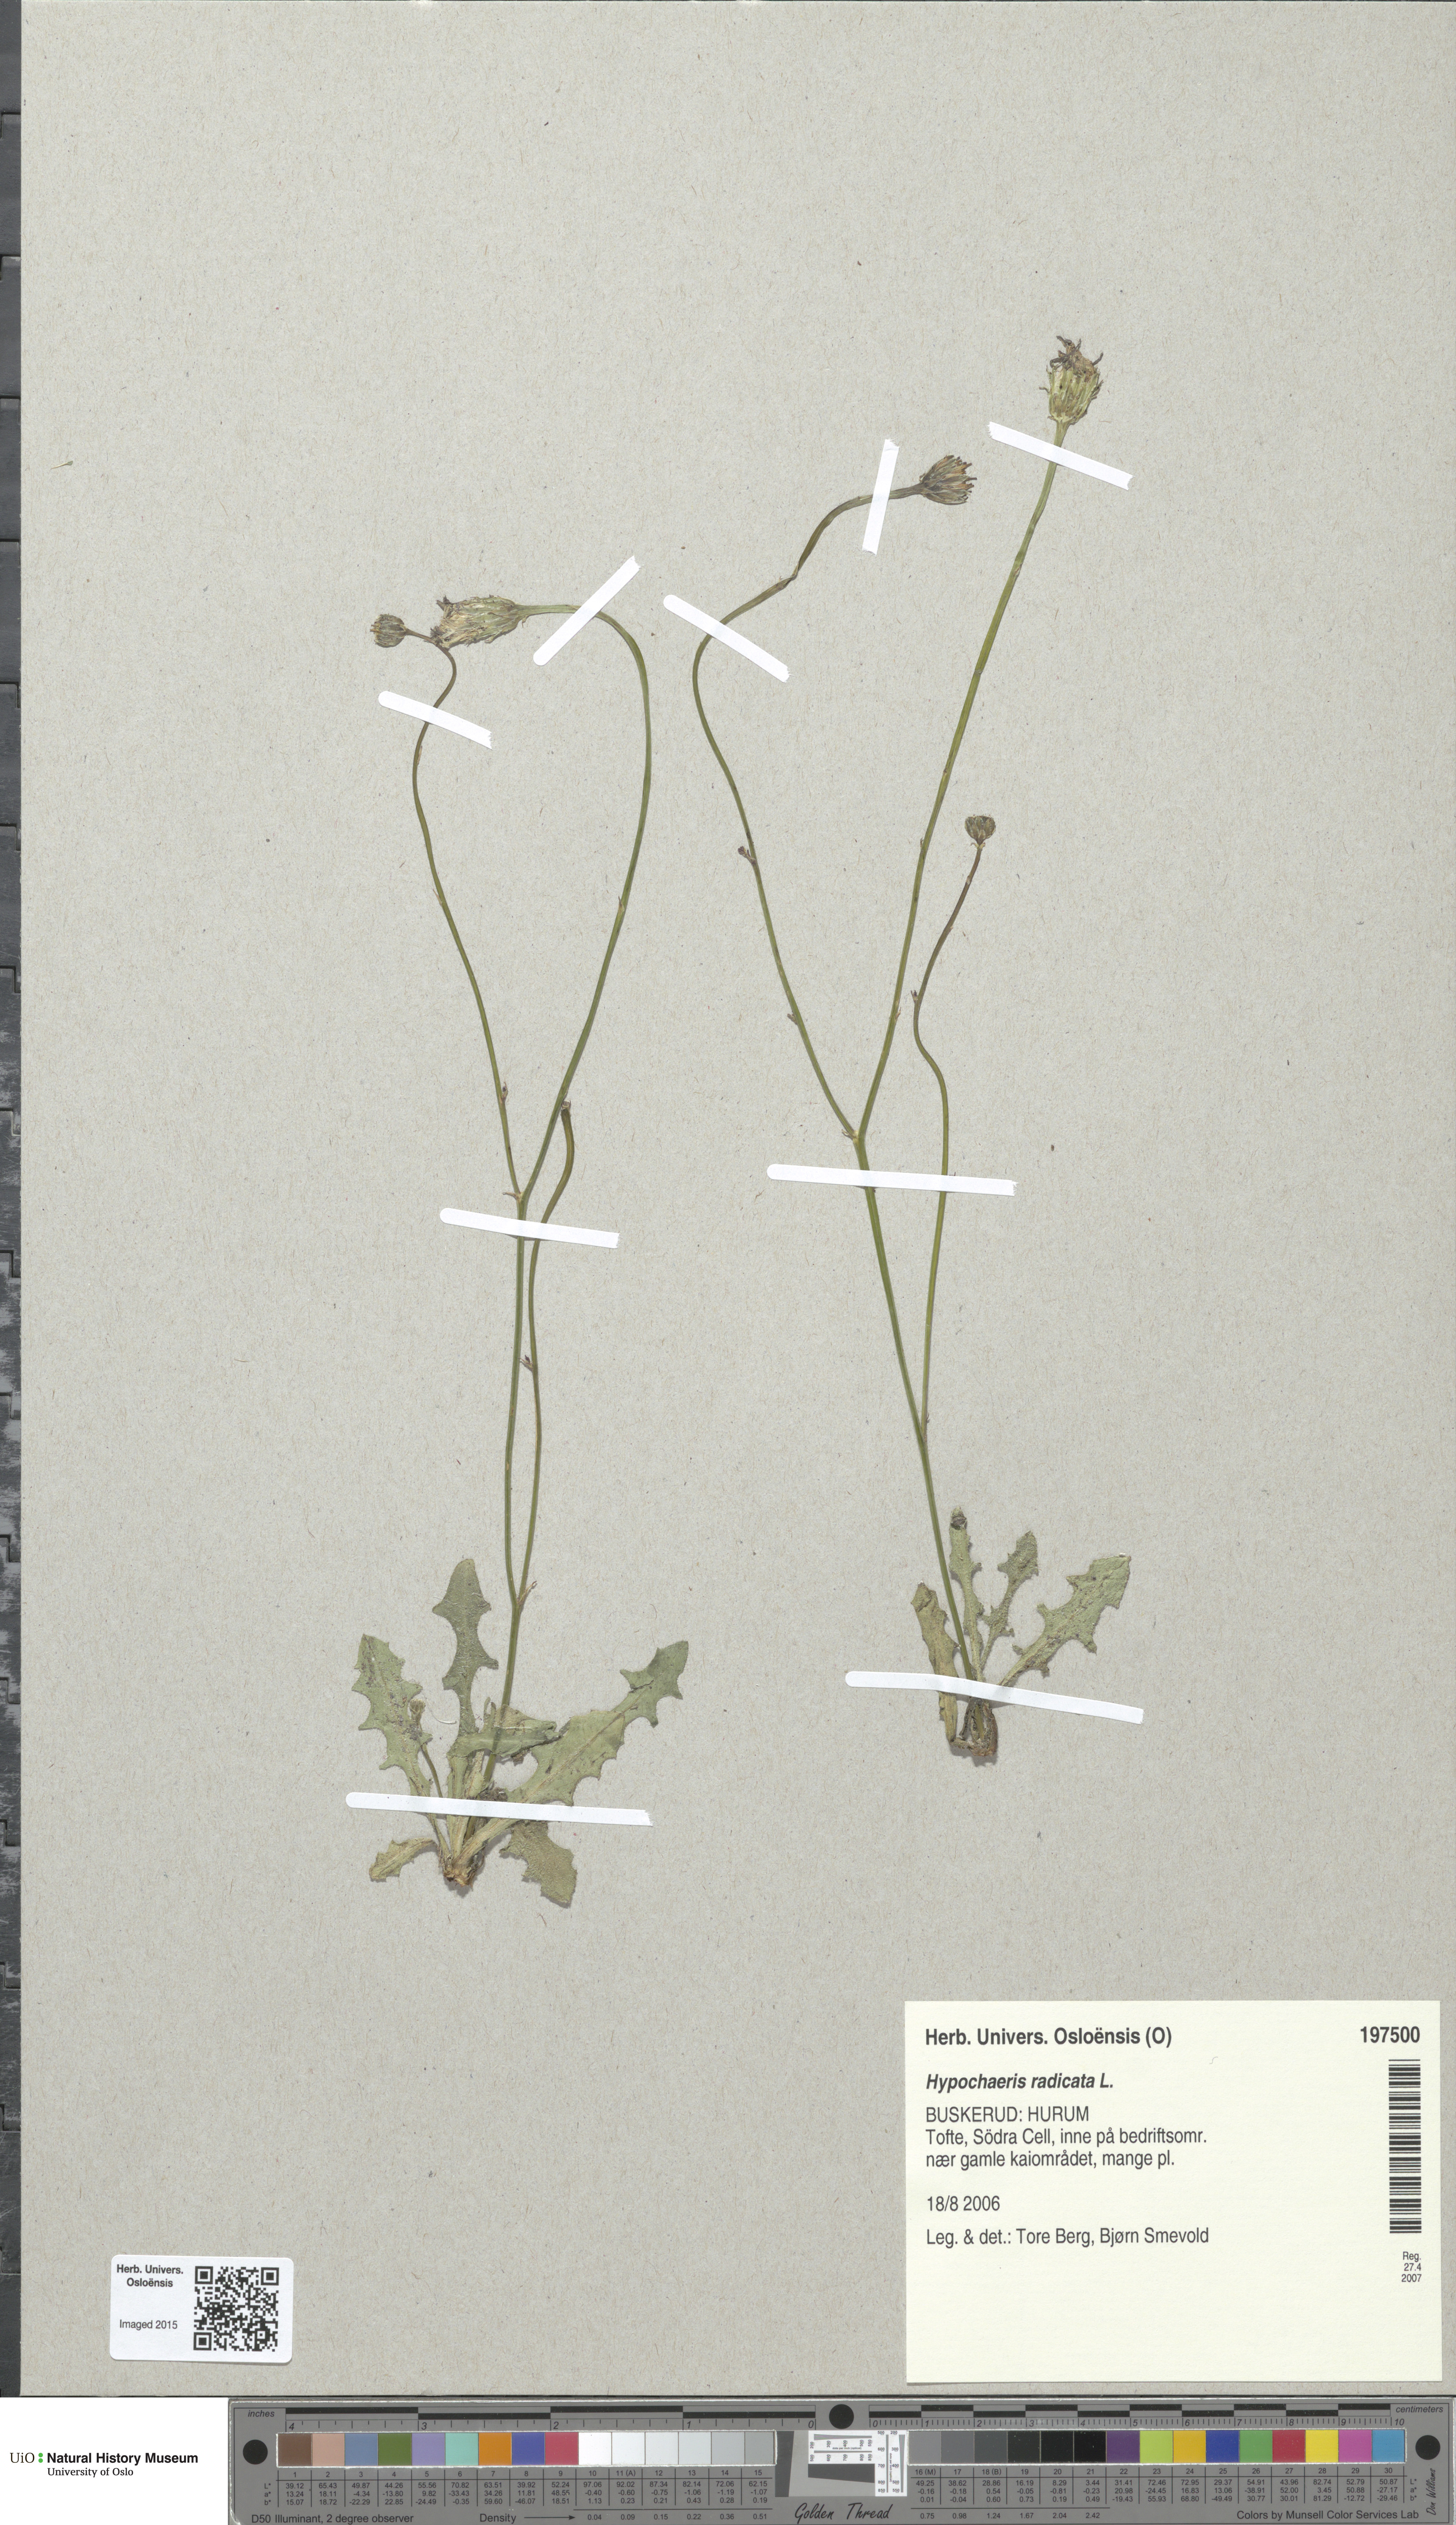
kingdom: Plantae
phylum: Tracheophyta
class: Magnoliopsida
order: Asterales
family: Asteraceae
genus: Hypochaeris
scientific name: Hypochaeris radicata
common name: Flatweed
